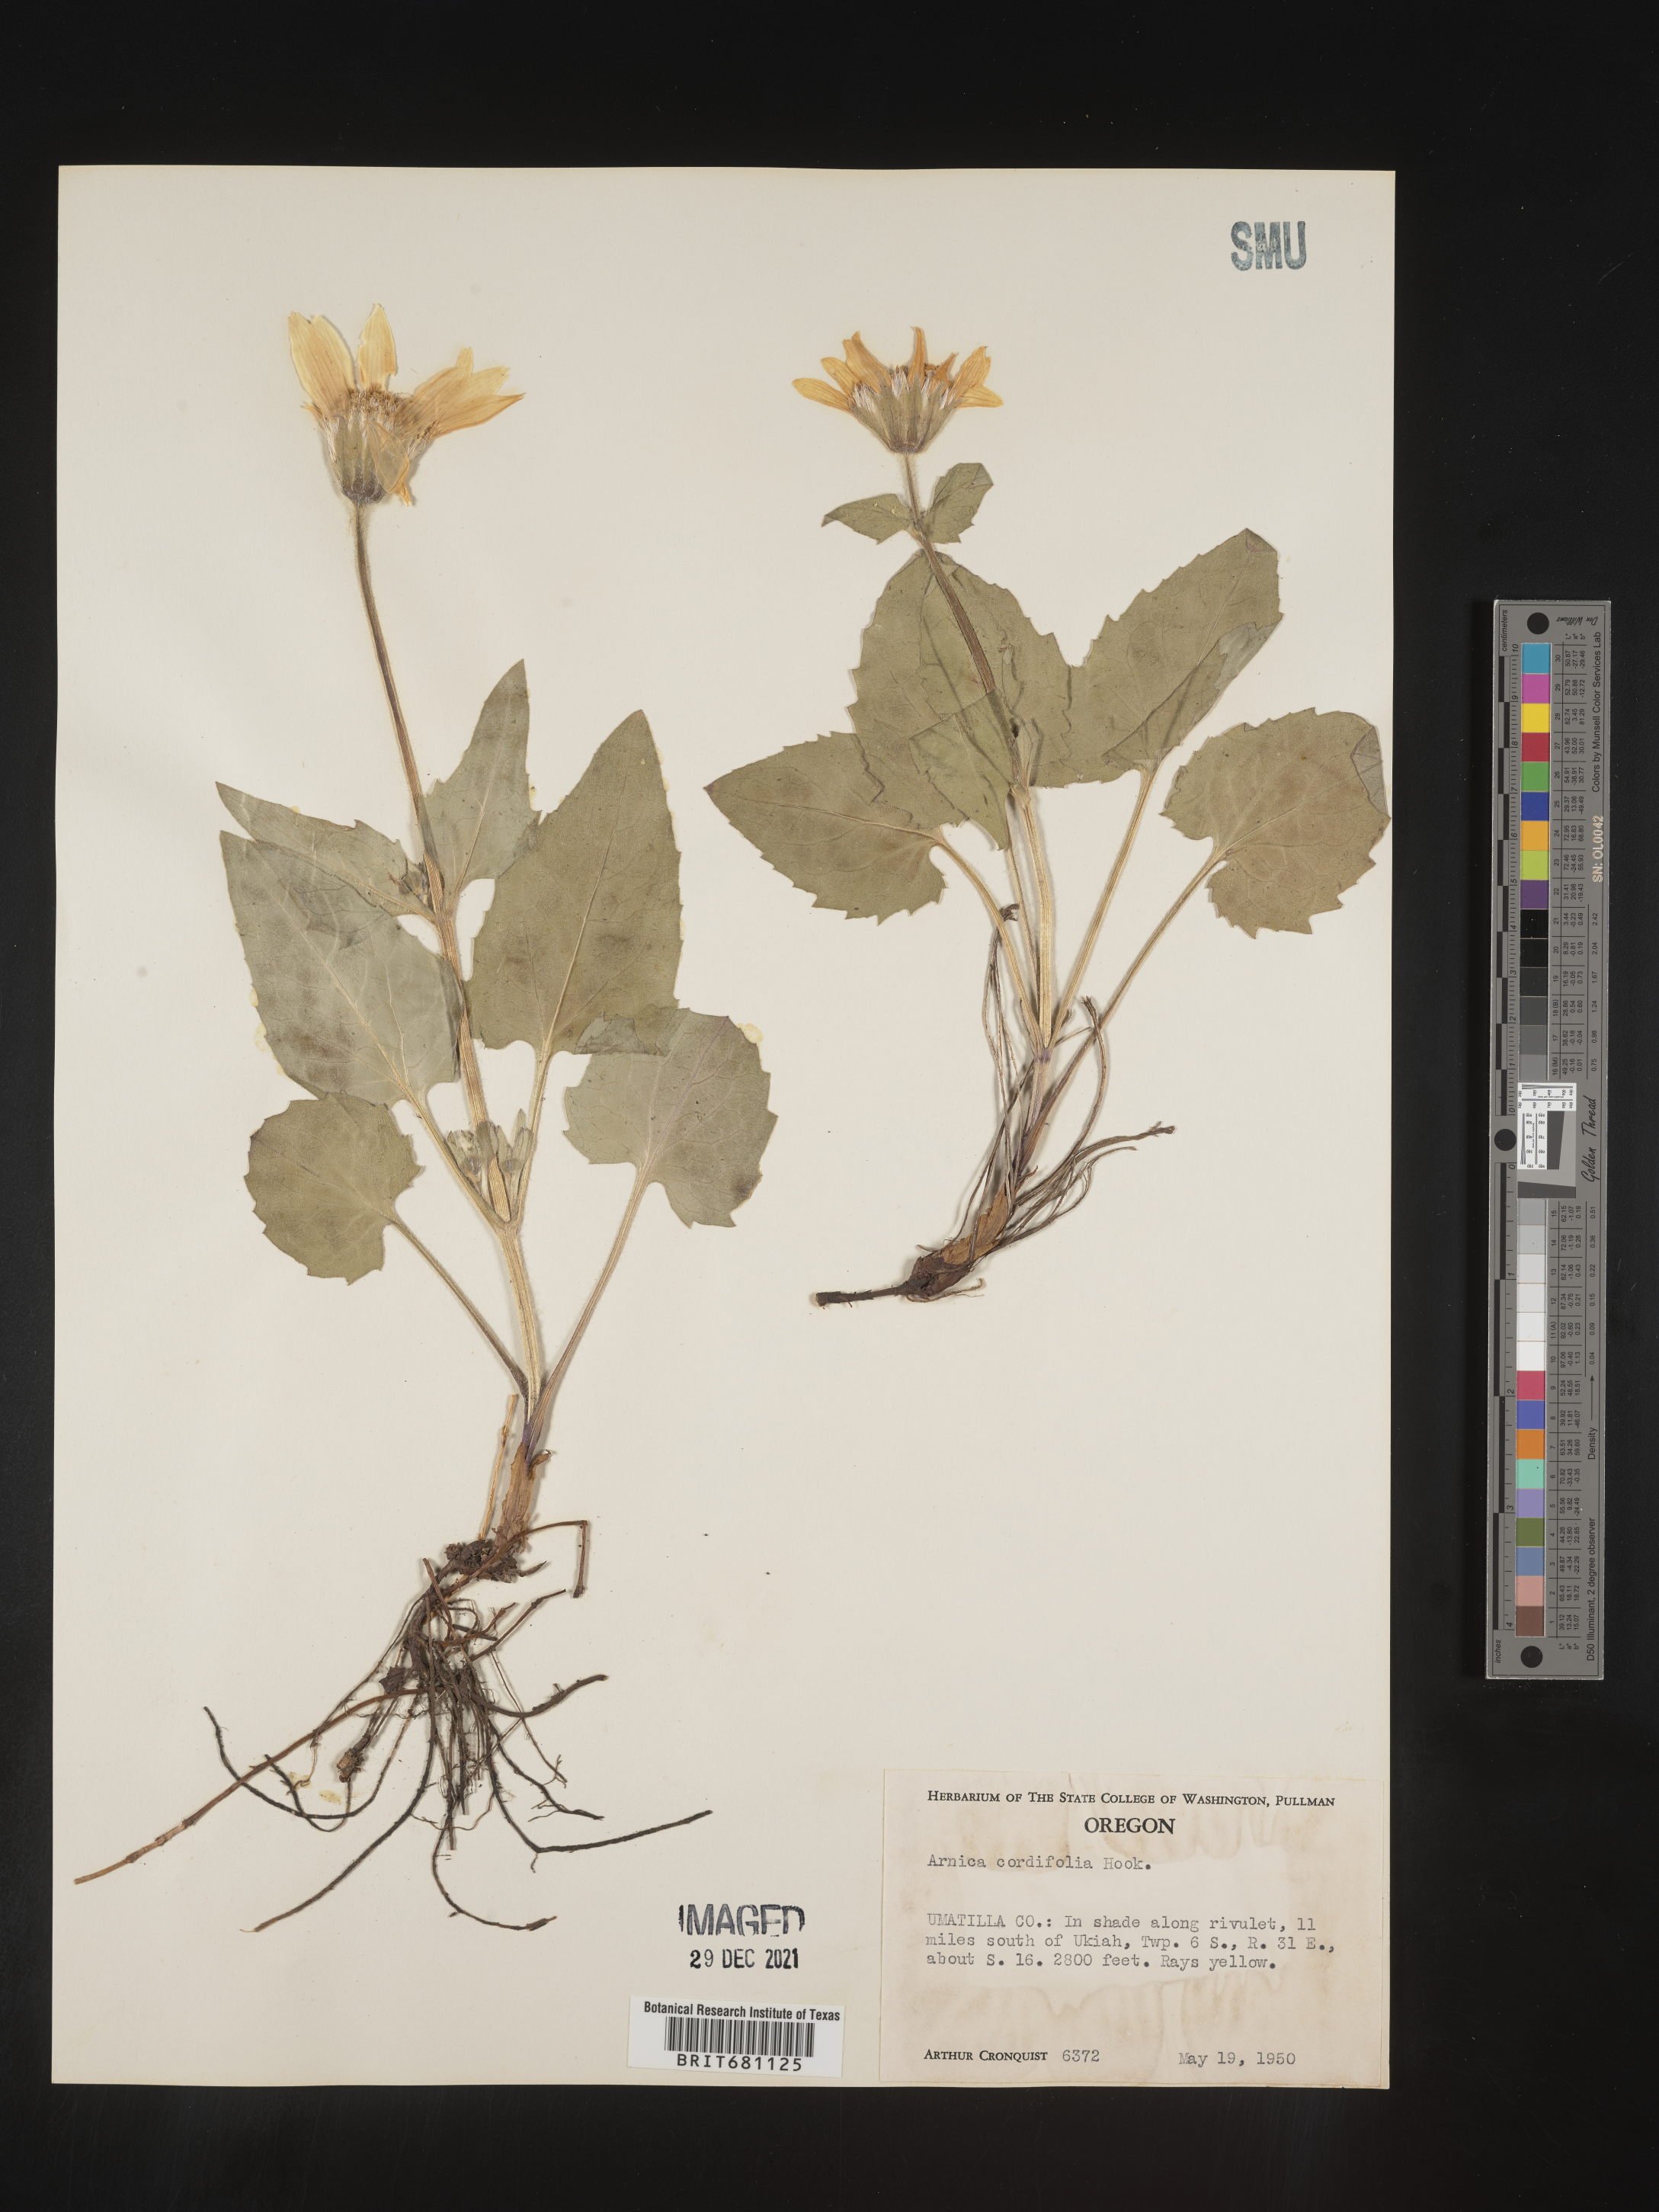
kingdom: Plantae
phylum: Tracheophyta
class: Magnoliopsida
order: Asterales
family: Asteraceae
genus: Arnica
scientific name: Arnica cordifolia
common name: Heart-leaf arnica
